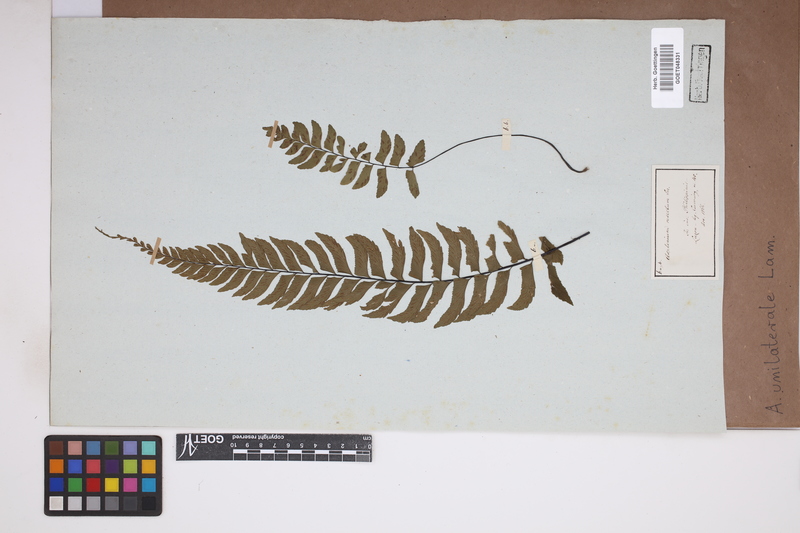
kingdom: Plantae
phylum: Tracheophyta
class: Polypodiopsida
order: Polypodiales
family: Aspleniaceae
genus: Hymenasplenium
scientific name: Hymenasplenium unilaterale
